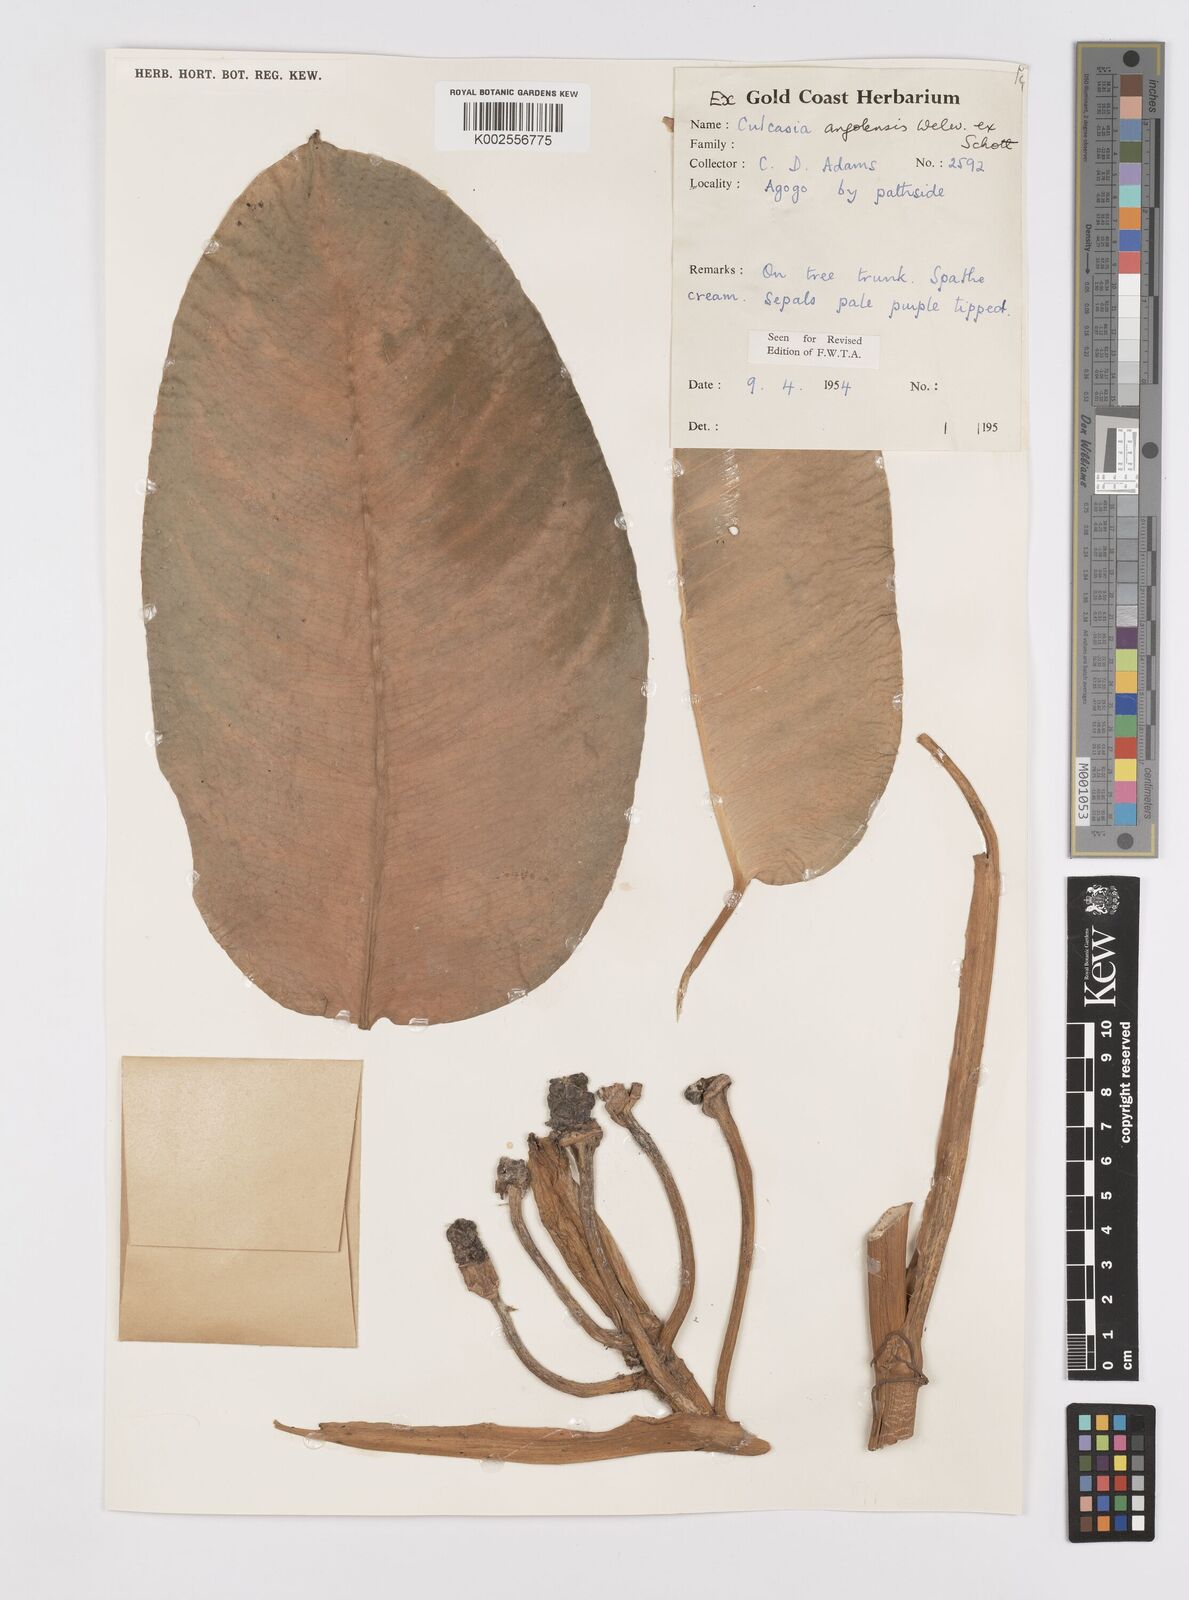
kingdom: Plantae
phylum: Tracheophyta
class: Liliopsida
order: Alismatales
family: Araceae
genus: Culcasia
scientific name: Culcasia angolensis
